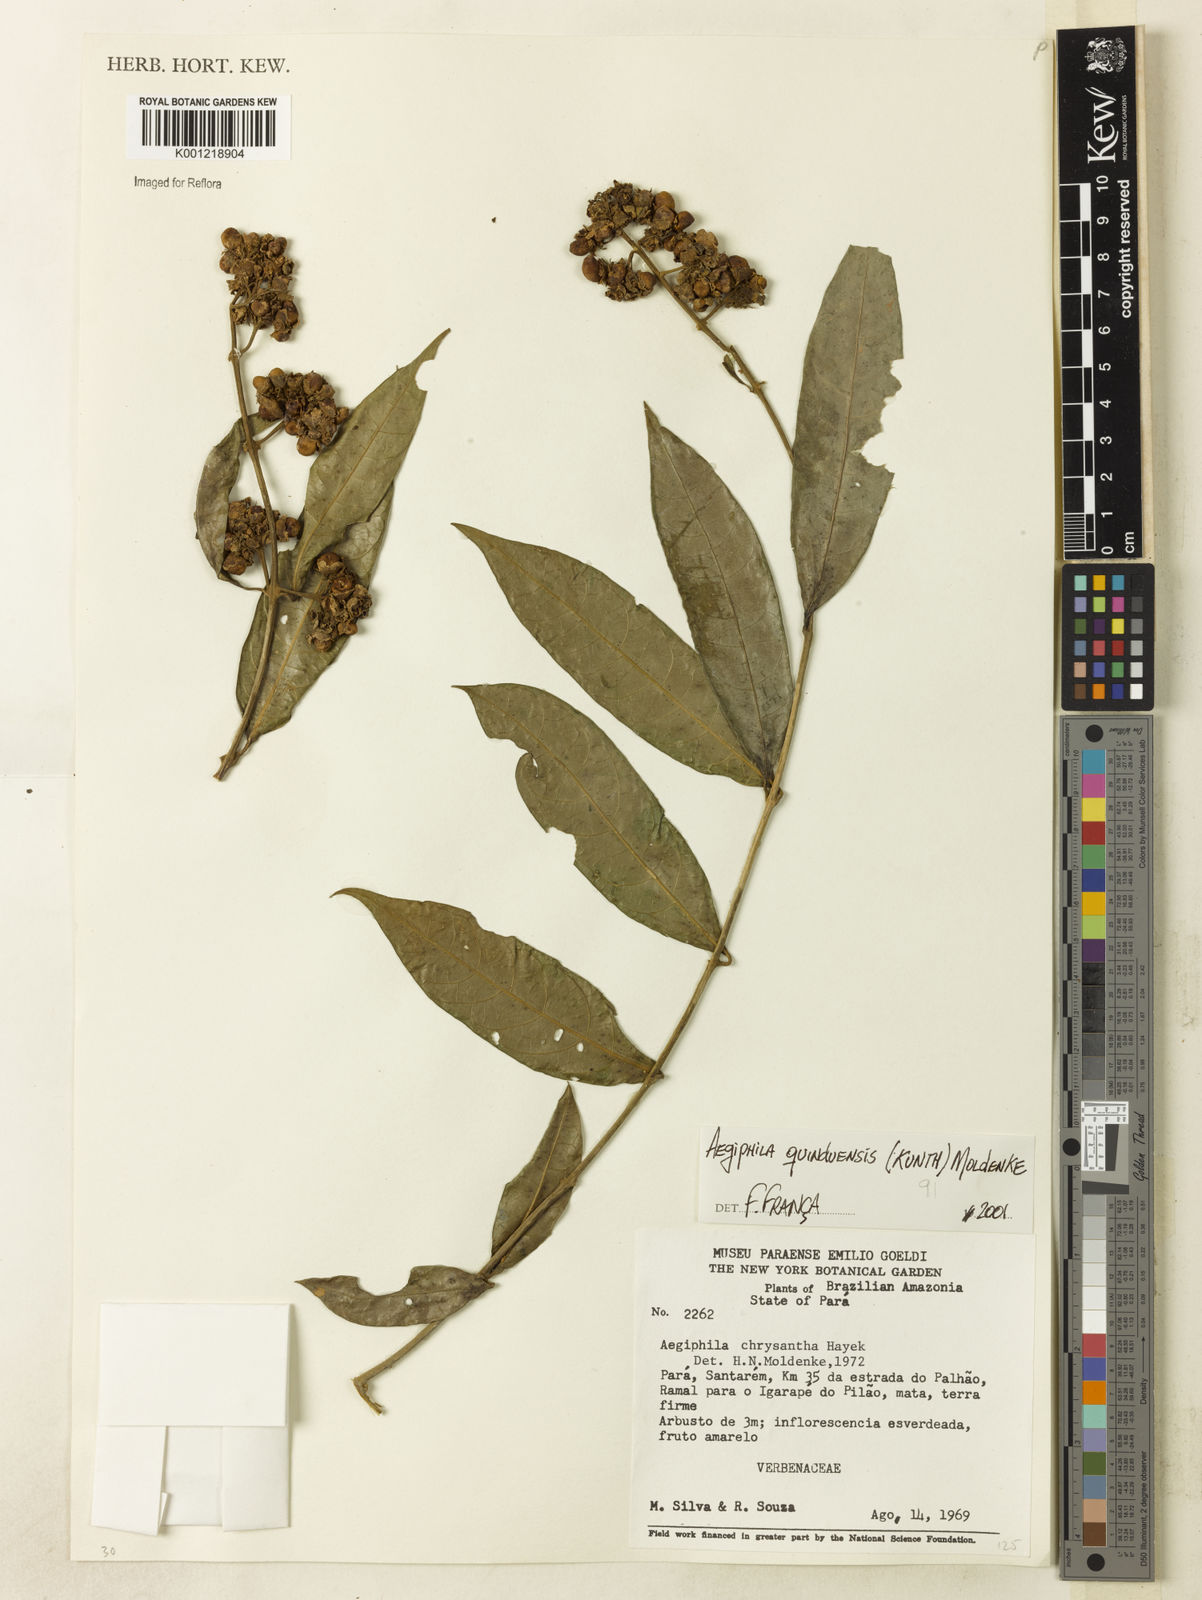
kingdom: Plantae
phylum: Tracheophyta
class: Magnoliopsida
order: Lamiales
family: Lamiaceae
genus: Aegiphila
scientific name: Aegiphila quinduensis
